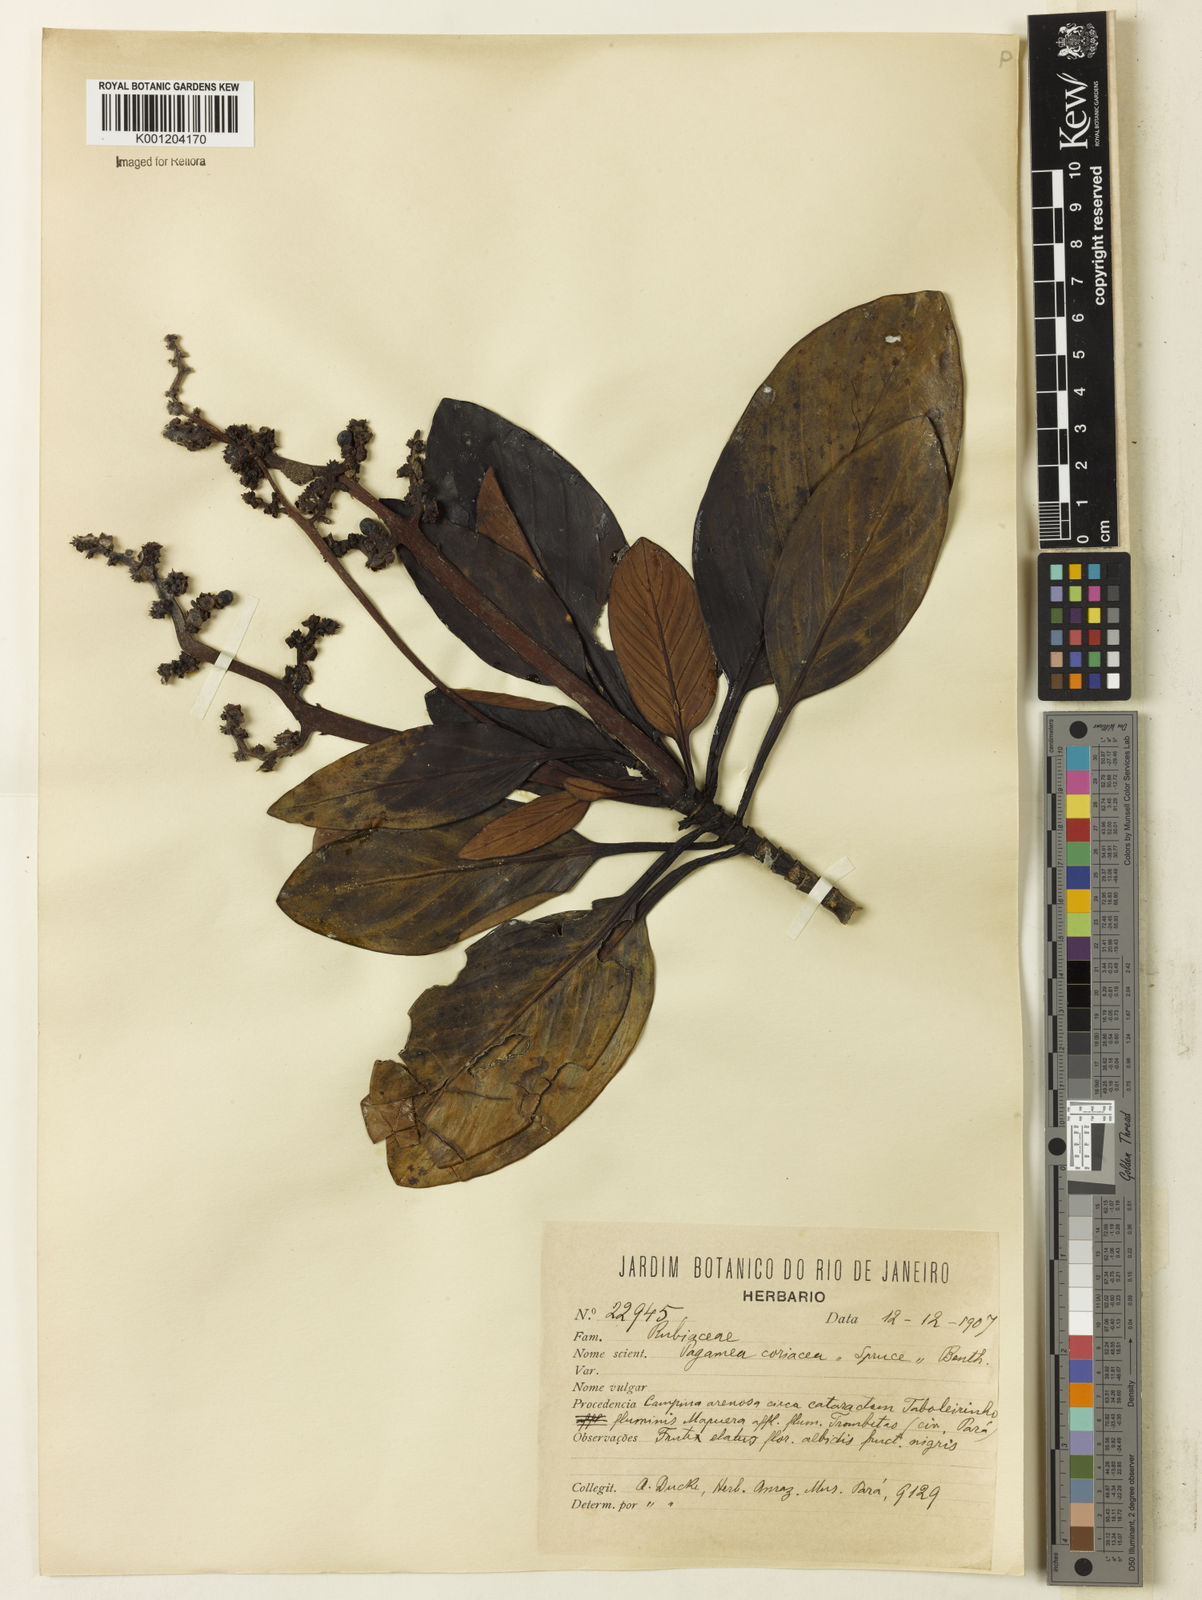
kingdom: Plantae
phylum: Tracheophyta
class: Magnoliopsida
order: Gentianales
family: Rubiaceae
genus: Pagamea
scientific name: Pagamea plicata
